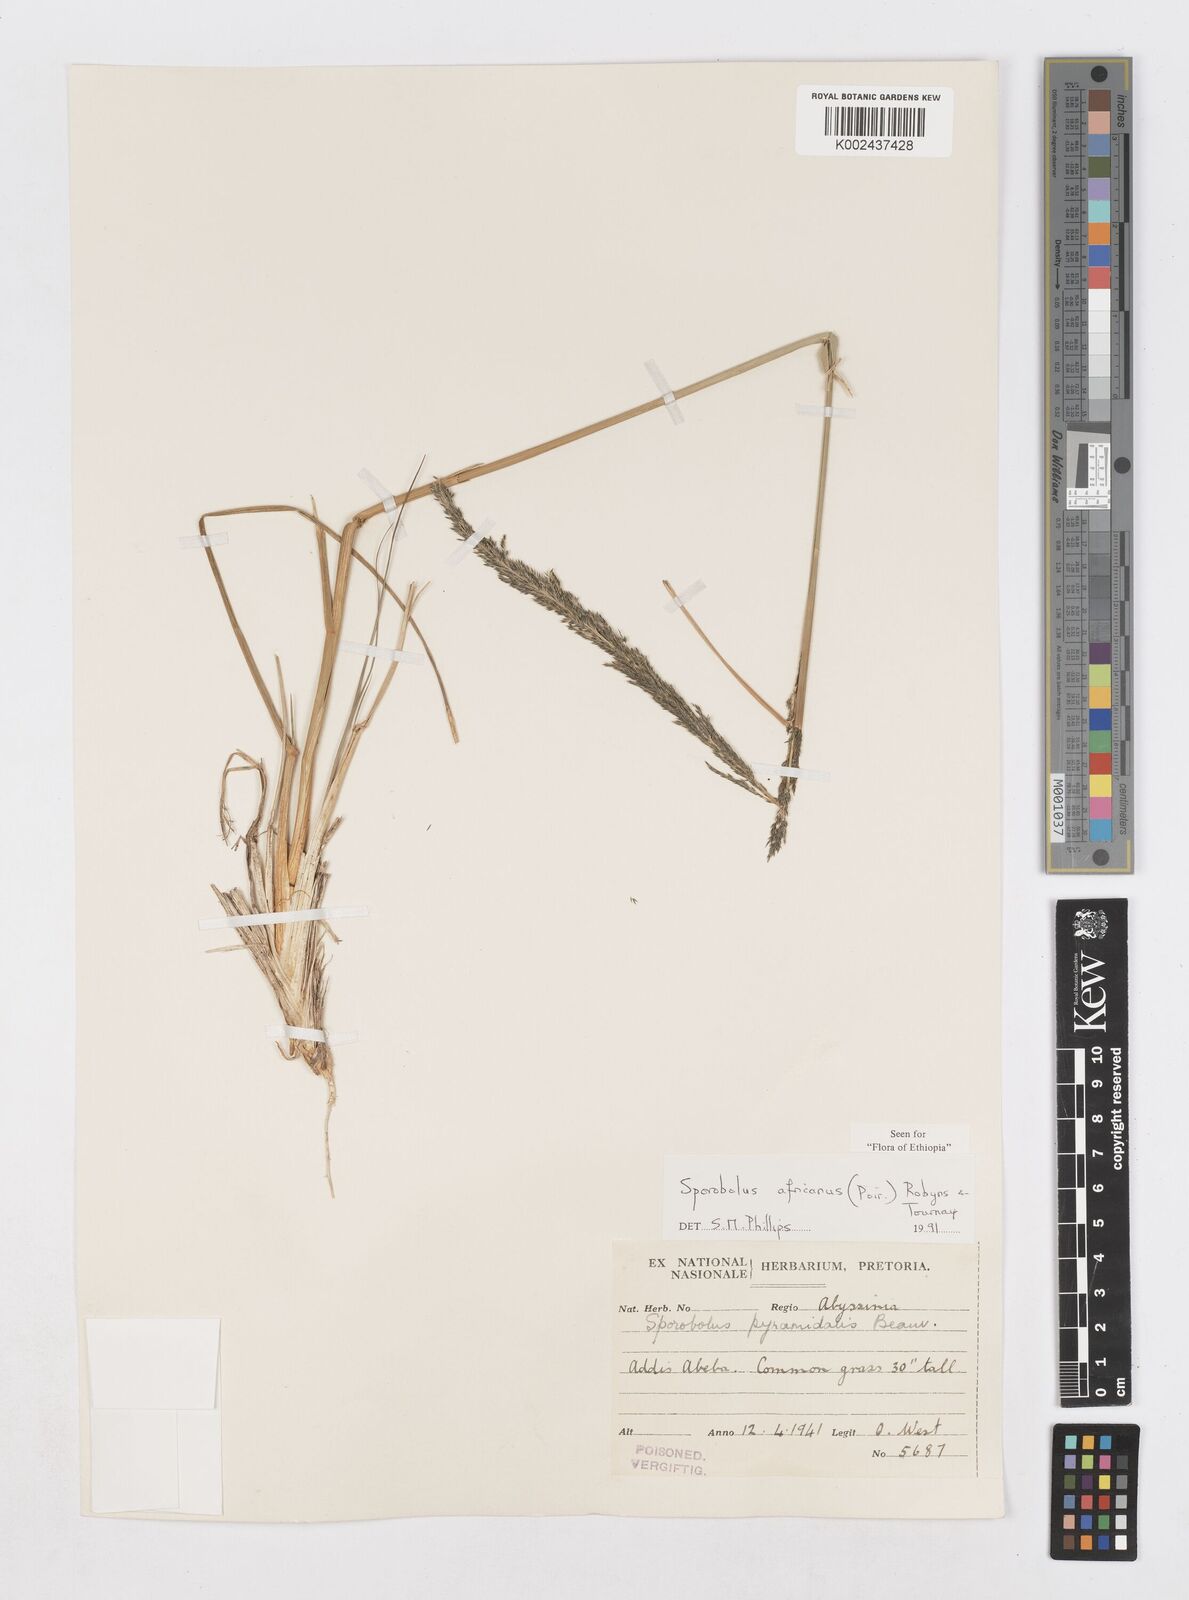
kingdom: Plantae
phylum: Tracheophyta
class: Liliopsida
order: Poales
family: Poaceae
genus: Sporobolus
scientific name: Sporobolus africanus
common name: African dropseed
